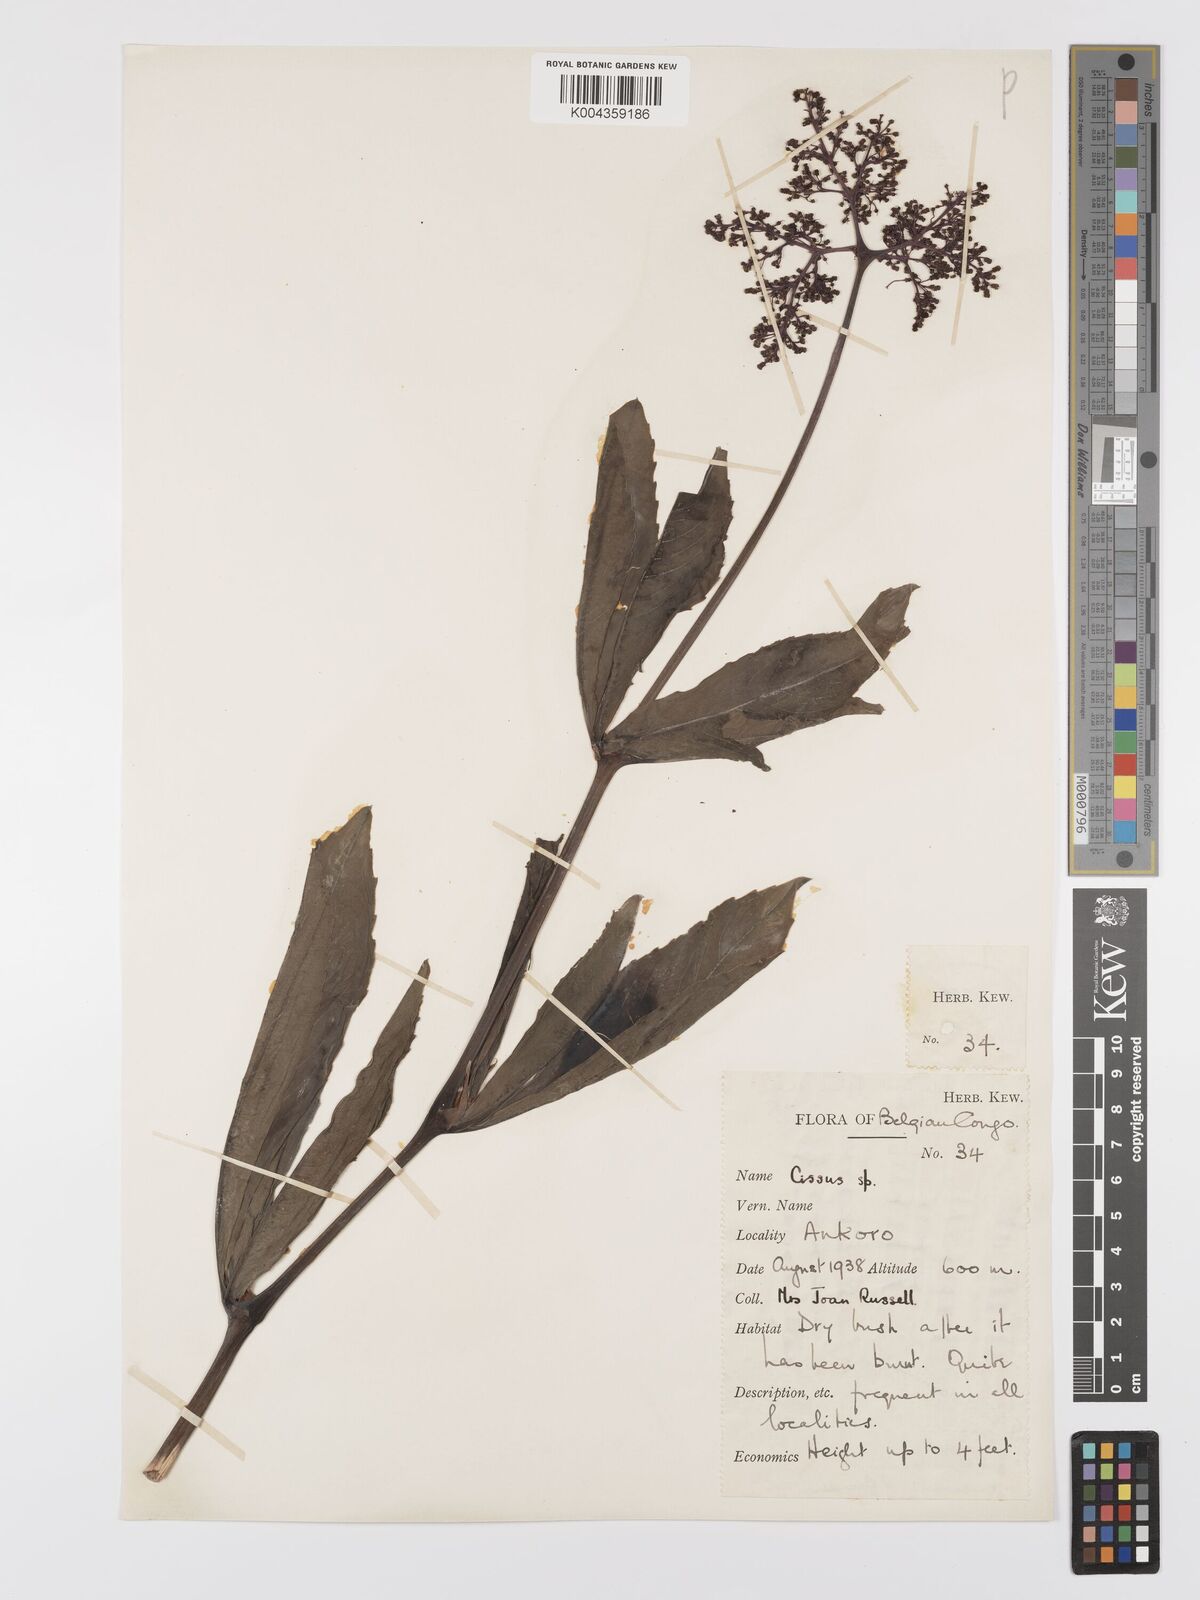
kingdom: Plantae
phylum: Tracheophyta
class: Magnoliopsida
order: Vitales
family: Vitaceae
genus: Cyphostemma
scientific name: Cyphostemma
